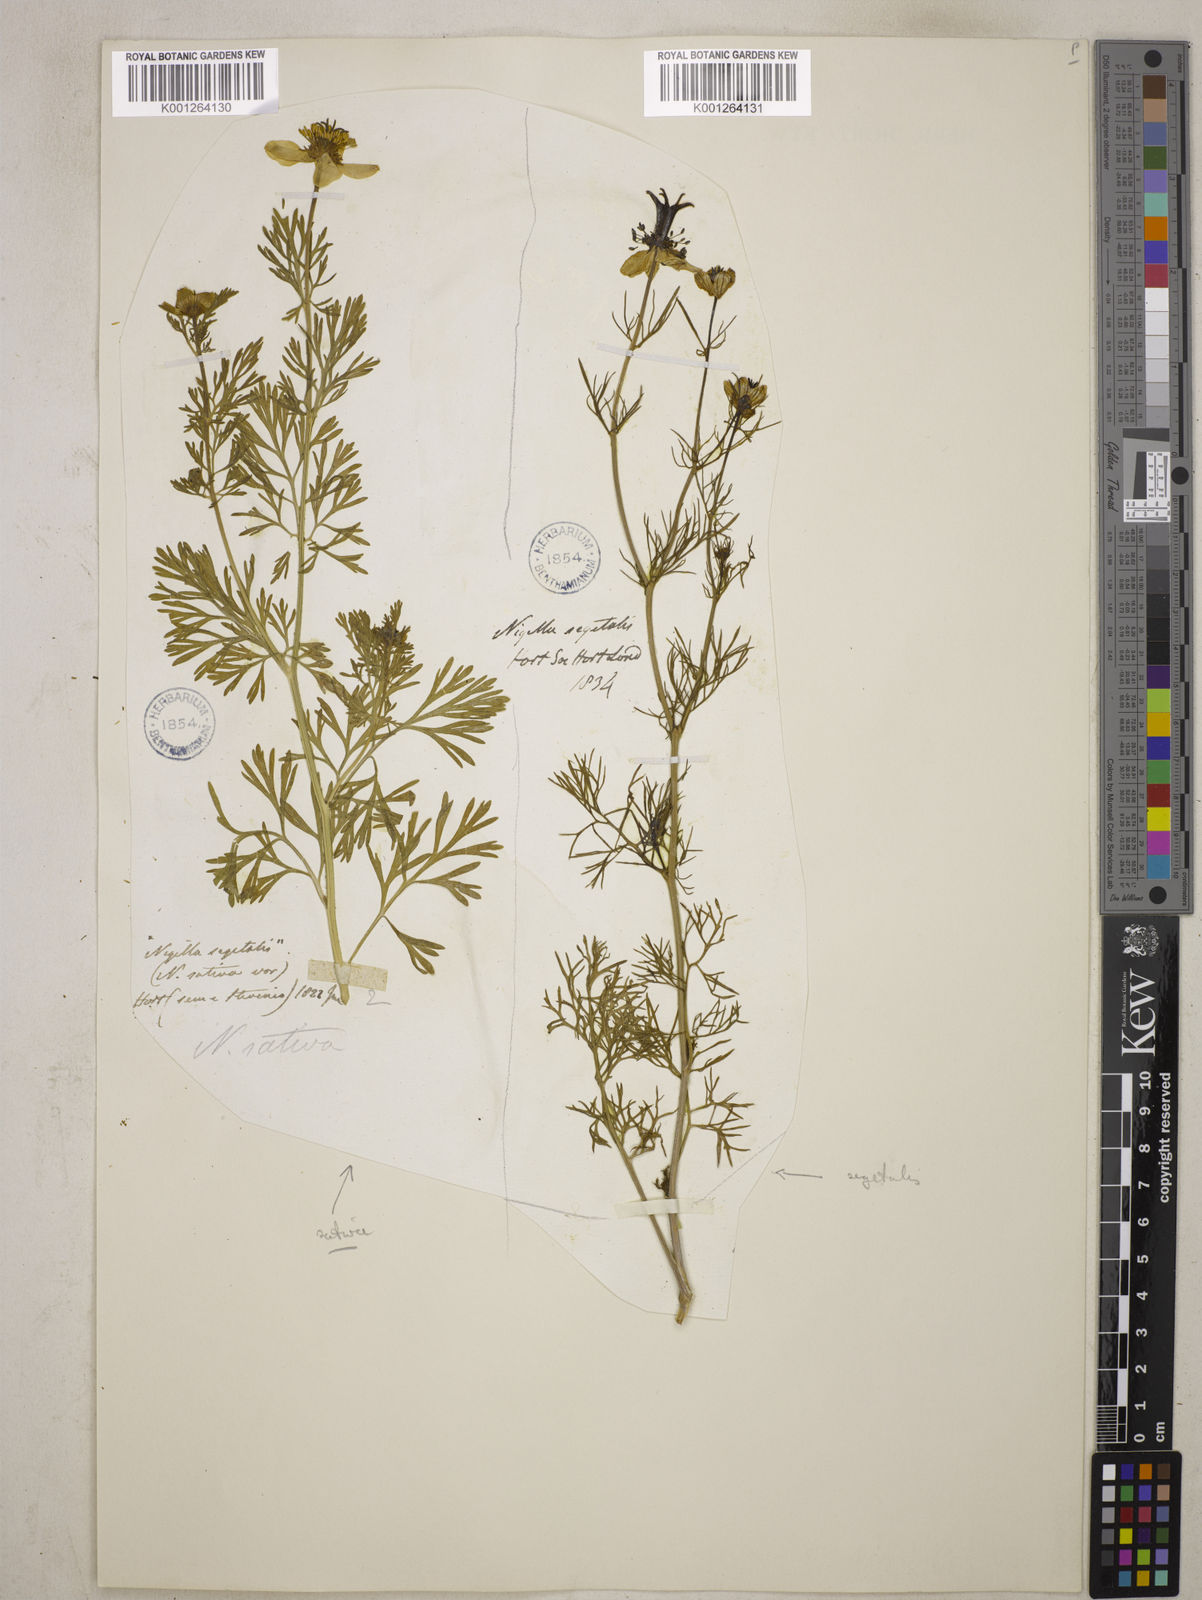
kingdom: Plantae
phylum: Tracheophyta
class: Magnoliopsida
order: Ranunculales
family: Ranunculaceae
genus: Nigella
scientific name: Nigella sativa
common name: Black-cumin
